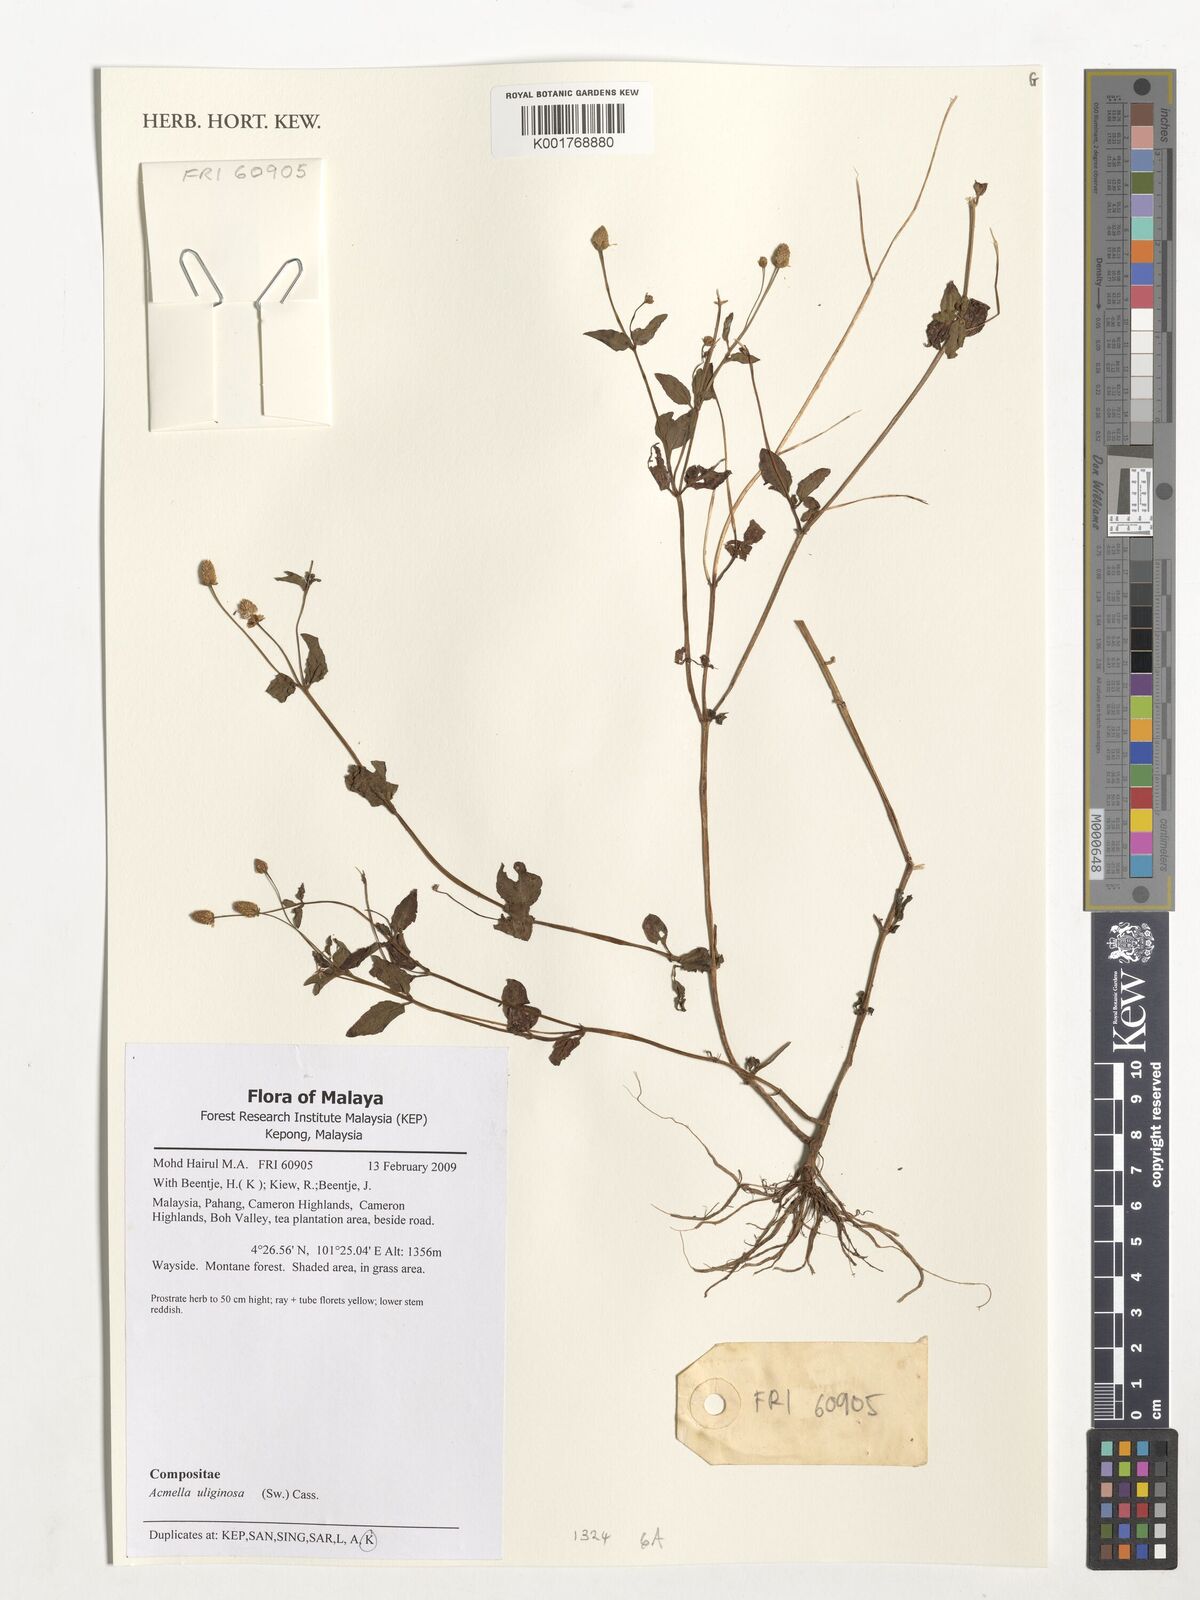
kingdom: Plantae
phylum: Tracheophyta
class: Magnoliopsida
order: Asterales
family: Asteraceae
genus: Acmella
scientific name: Acmella uliginosa
